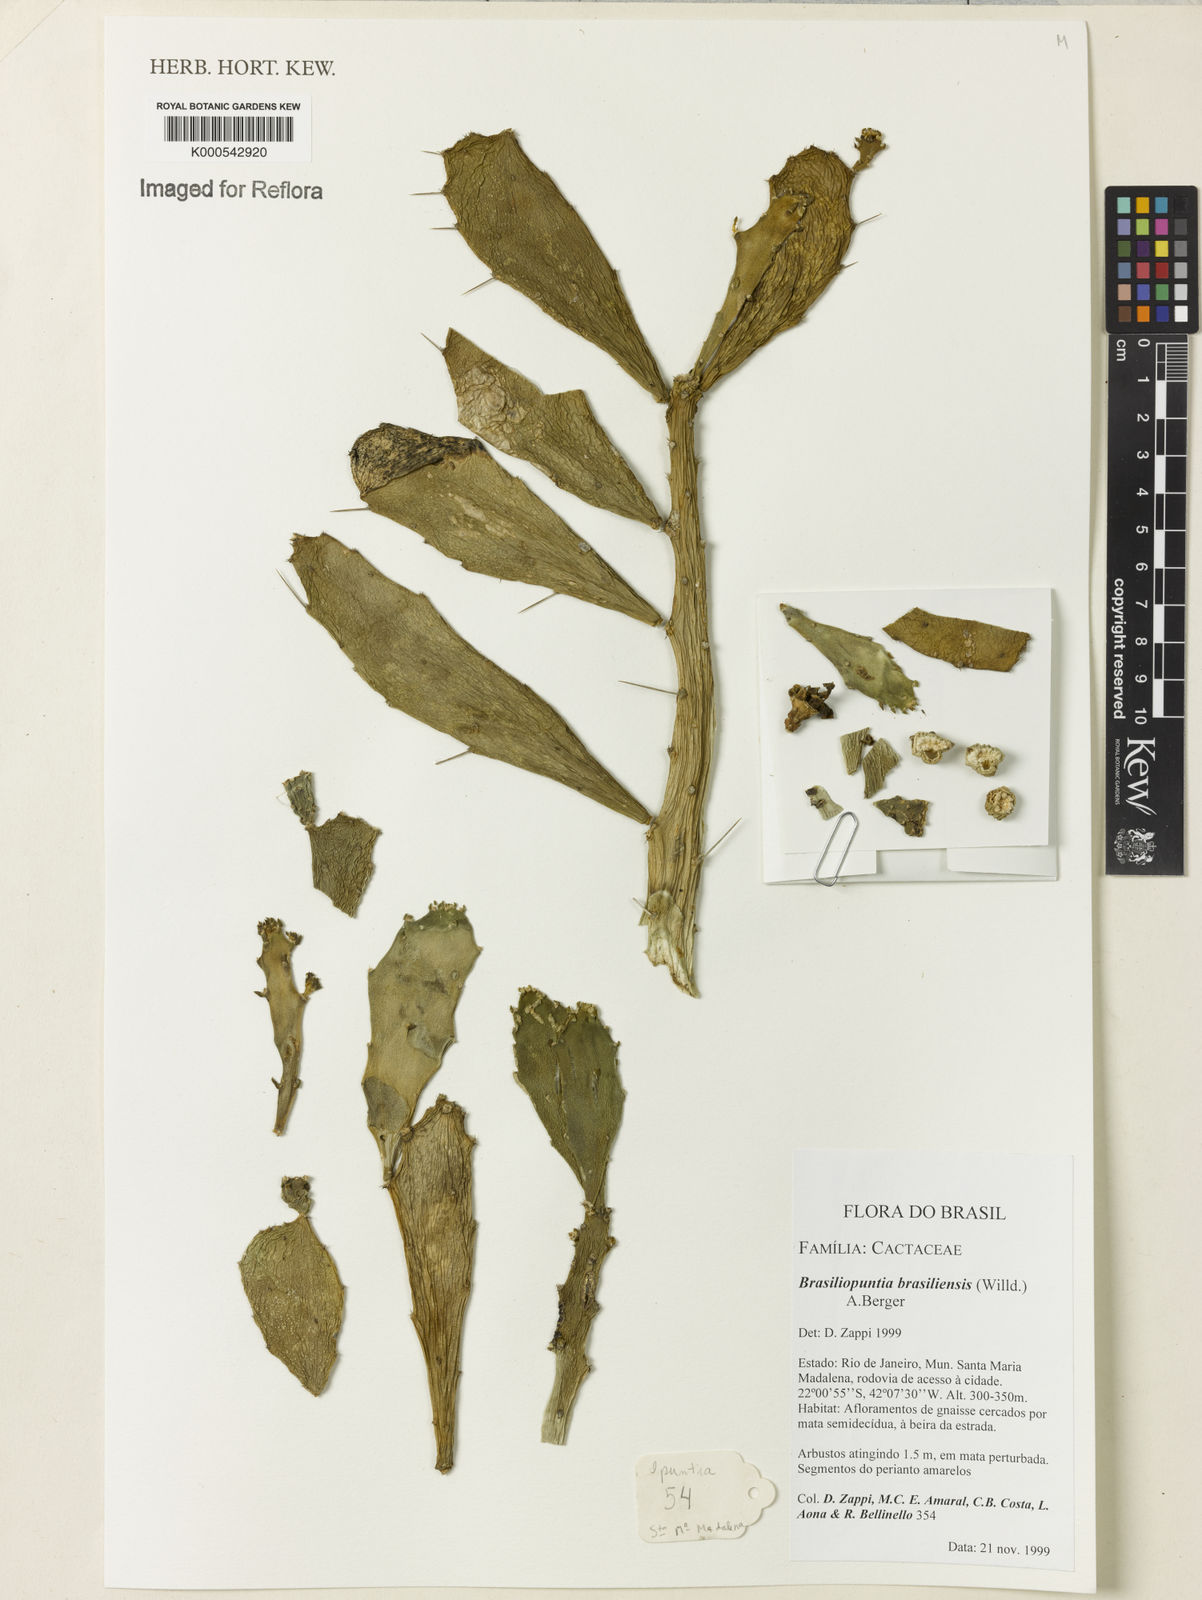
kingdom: Plantae
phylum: Tracheophyta
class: Magnoliopsida
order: Caryophyllales
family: Cactaceae
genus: Brasiliopuntia
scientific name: Brasiliopuntia brasiliensis
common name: Brazilian pricklypear
